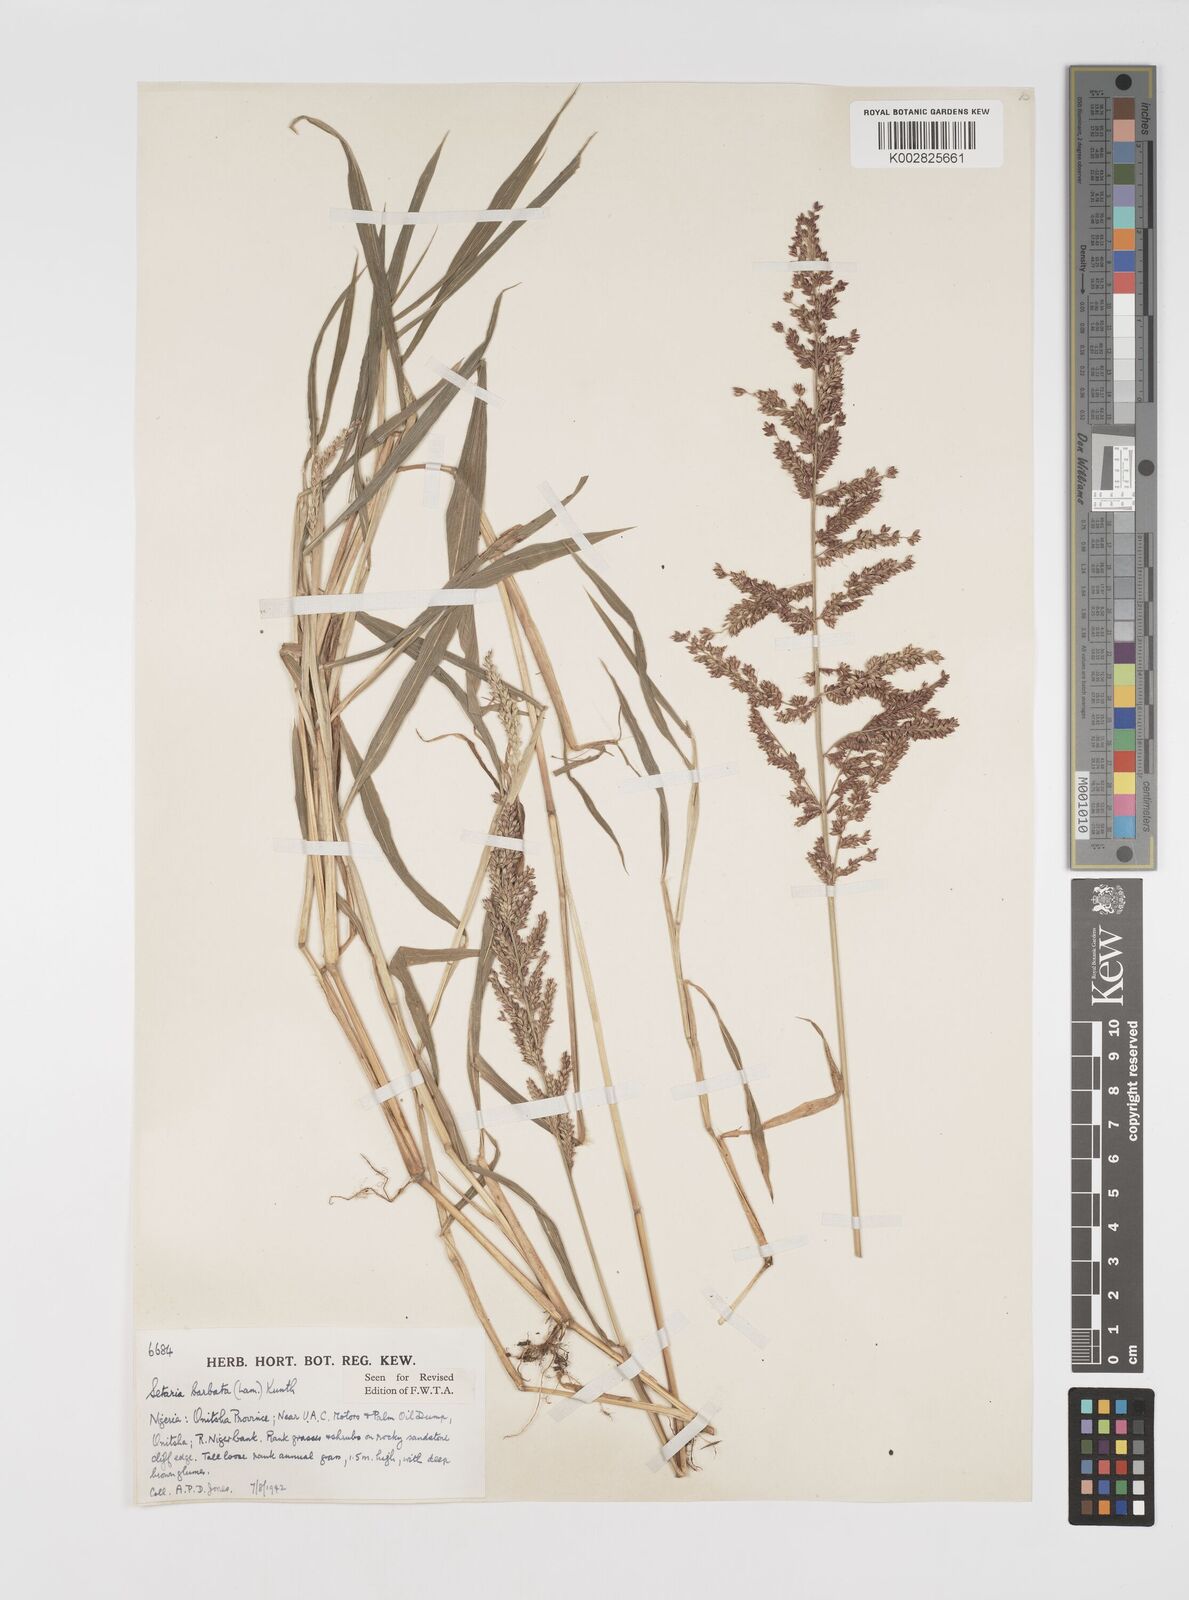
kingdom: Plantae
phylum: Tracheophyta
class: Liliopsida
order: Poales
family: Poaceae
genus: Setaria
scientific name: Setaria barbata
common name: East indian bristlegrass
